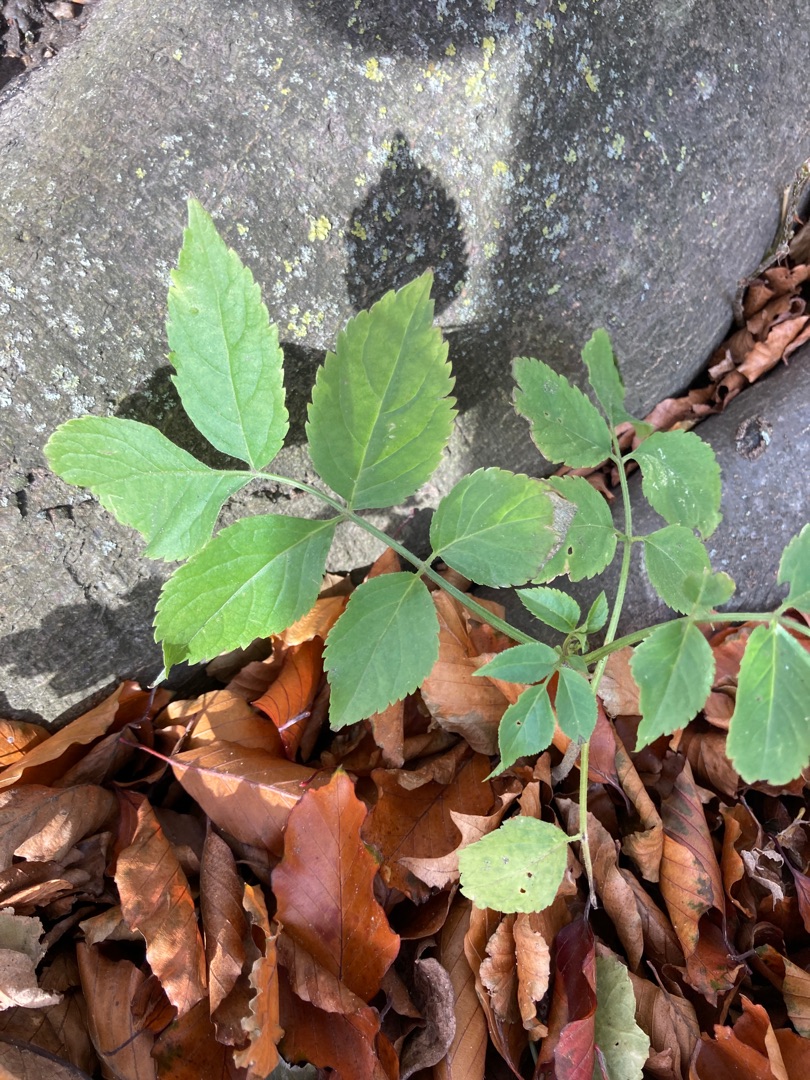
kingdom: Plantae
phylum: Tracheophyta
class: Magnoliopsida
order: Dipsacales
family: Viburnaceae
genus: Sambucus
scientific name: Sambucus nigra
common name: Almindelig hyld
